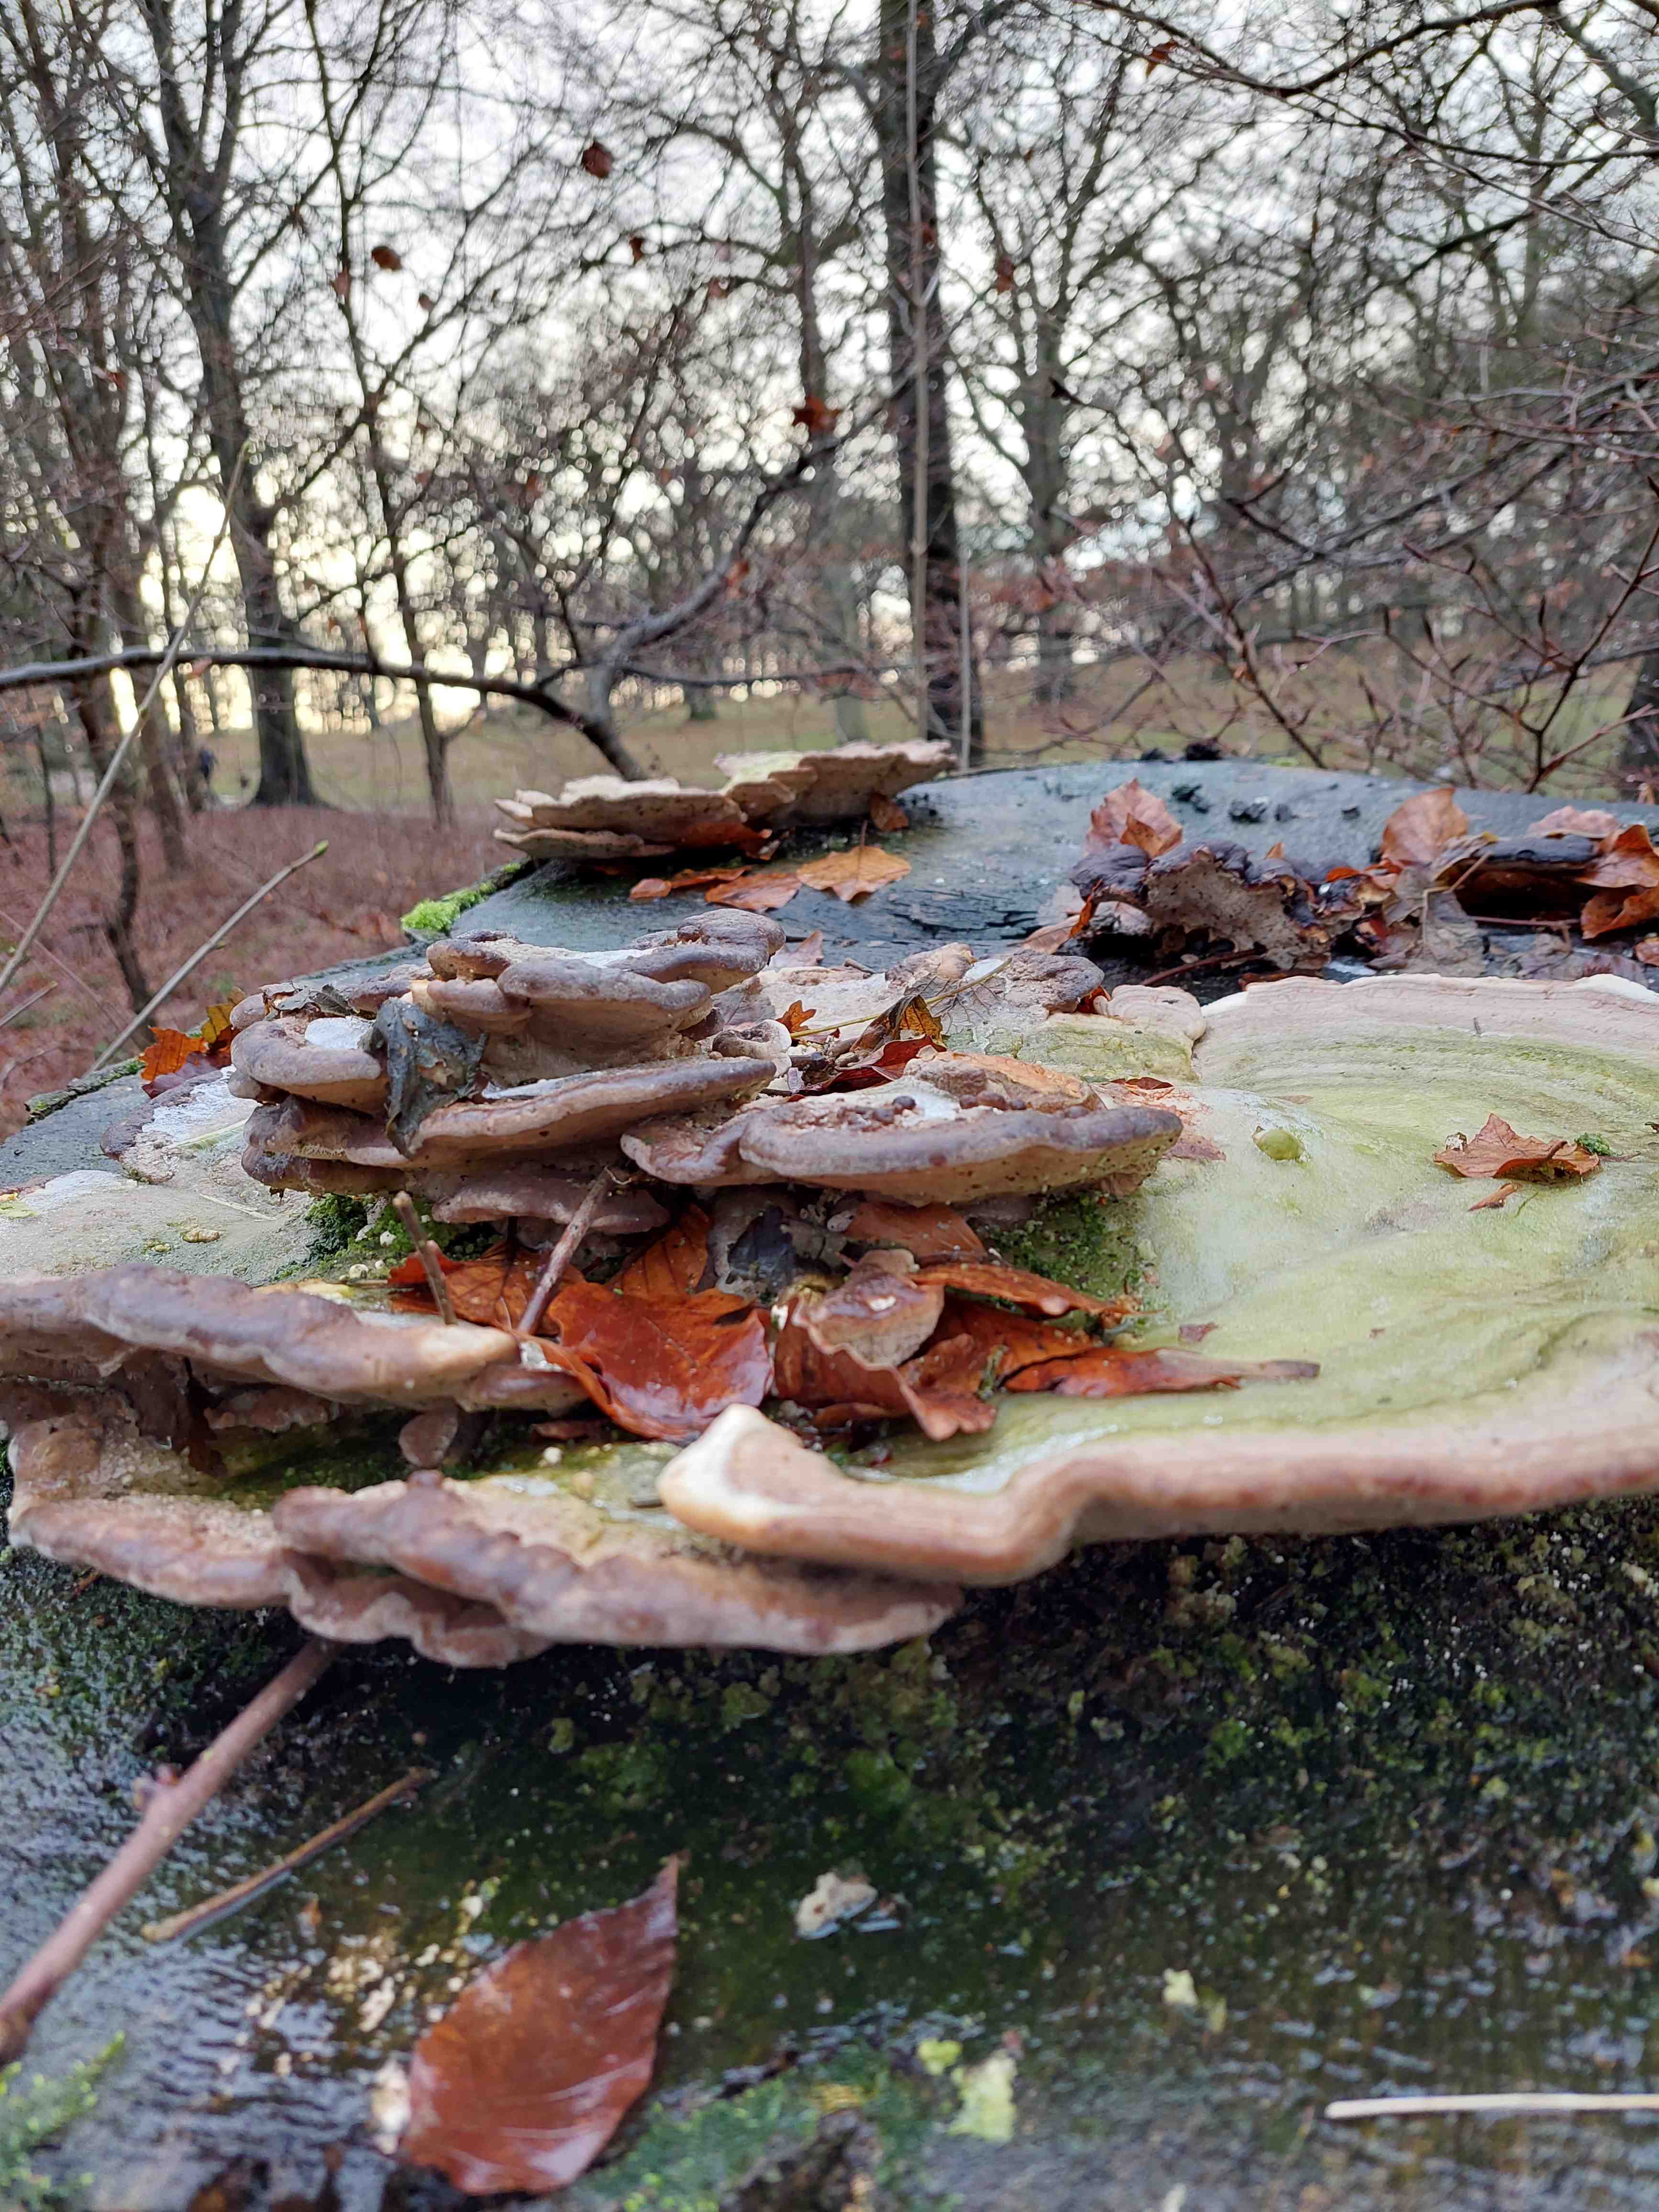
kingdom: Fungi
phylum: Basidiomycota
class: Agaricomycetes
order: Polyporales
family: Polyporaceae
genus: Trametes
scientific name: Trametes gibbosa
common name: puklet læderporesvamp
